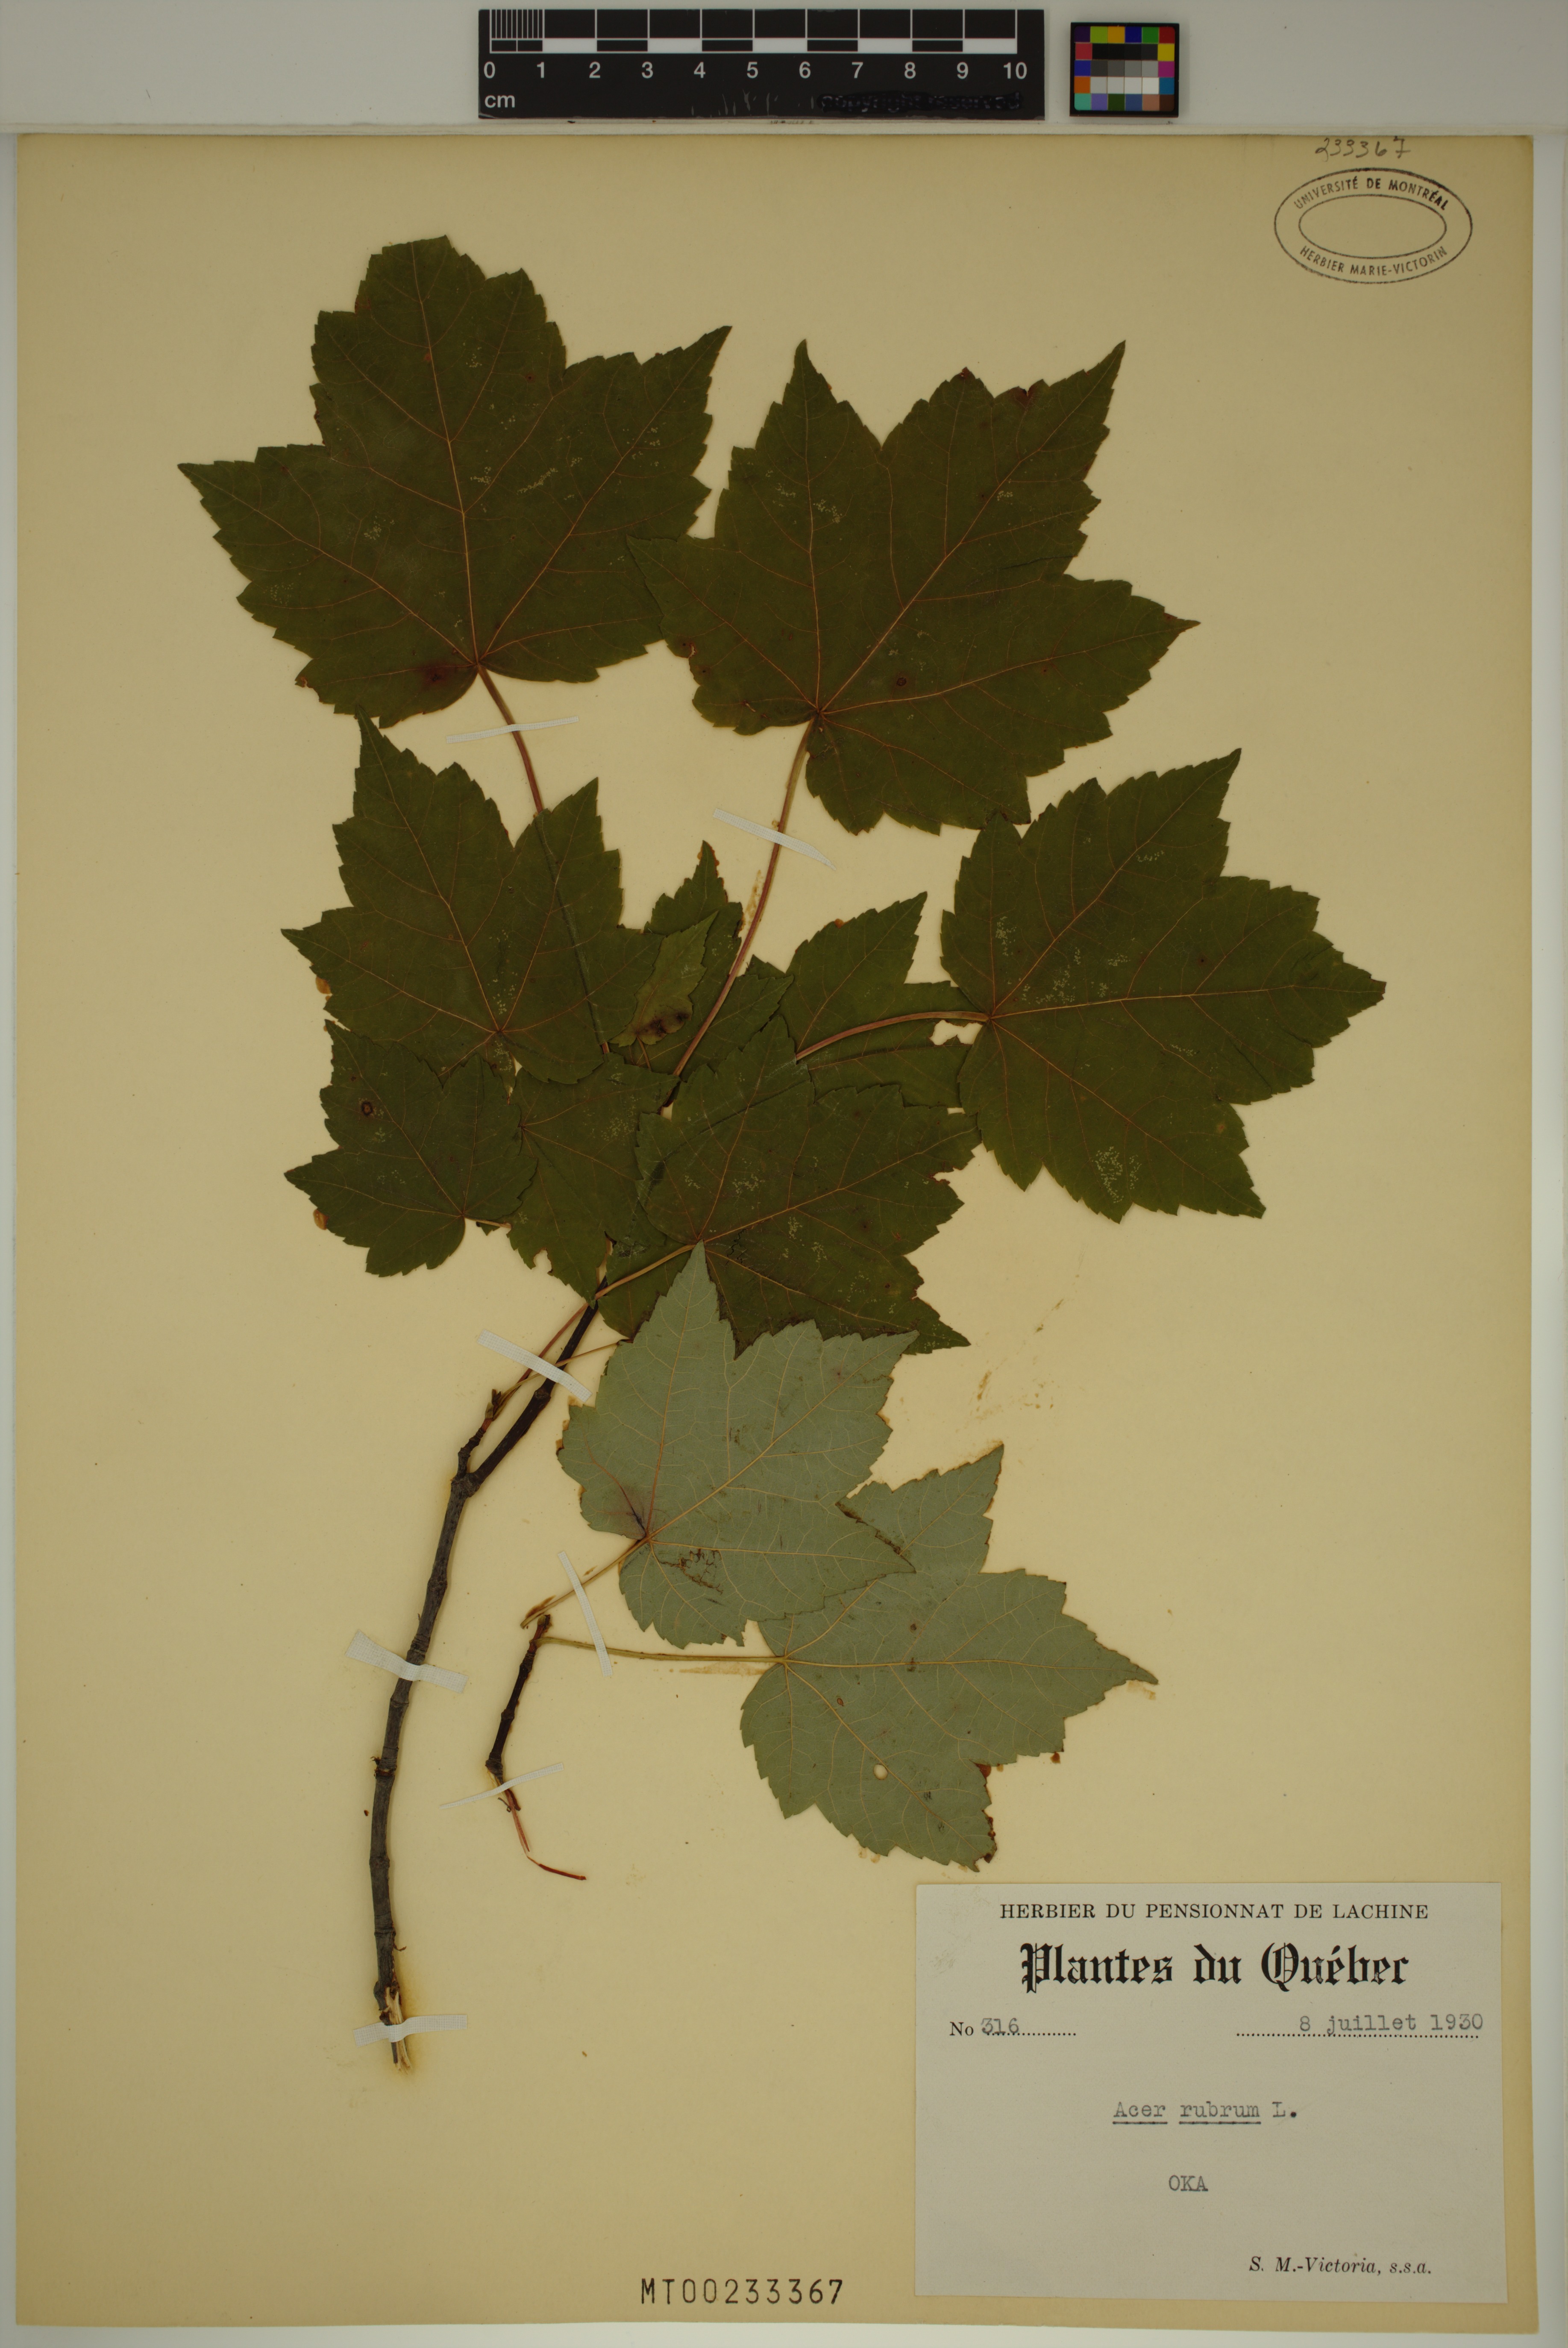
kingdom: Plantae
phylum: Tracheophyta
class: Magnoliopsida
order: Sapindales
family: Sapindaceae
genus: Acer
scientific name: Acer rubrum
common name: Red maple
